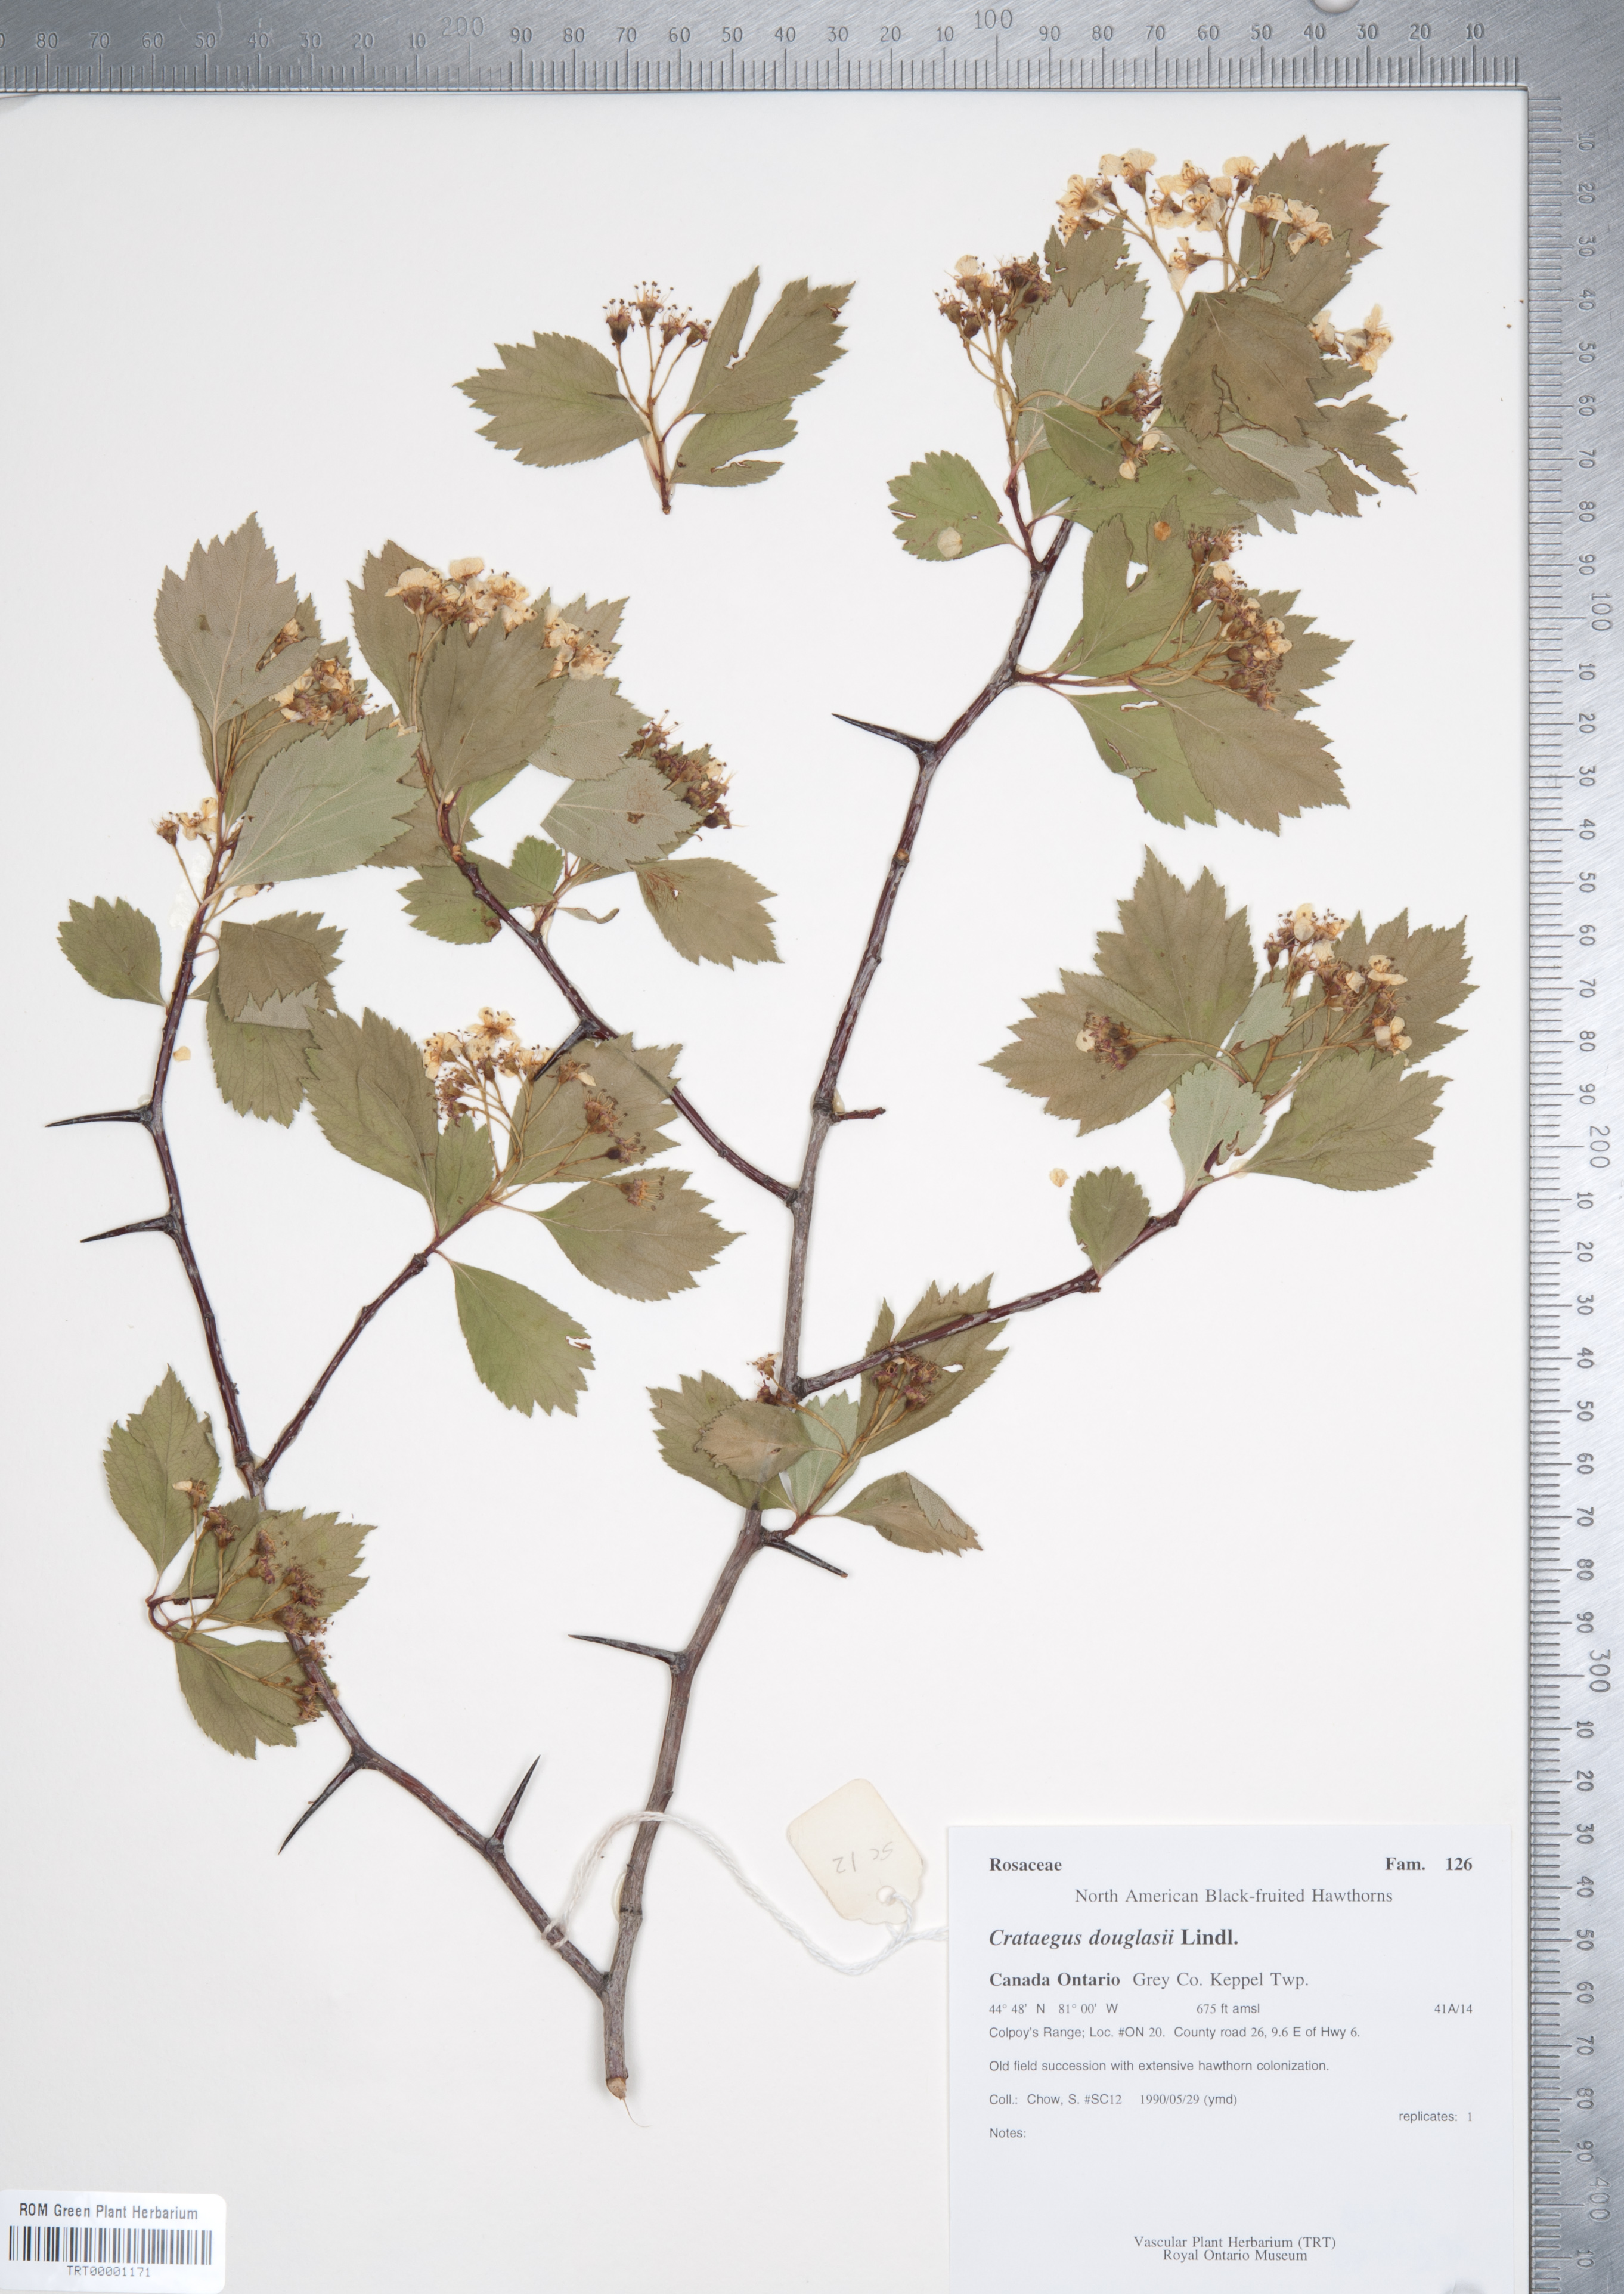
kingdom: Plantae
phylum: Tracheophyta
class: Magnoliopsida
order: Rosales
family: Rosaceae
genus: Crataegus
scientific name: Crataegus douglasii
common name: Black hawthorn
